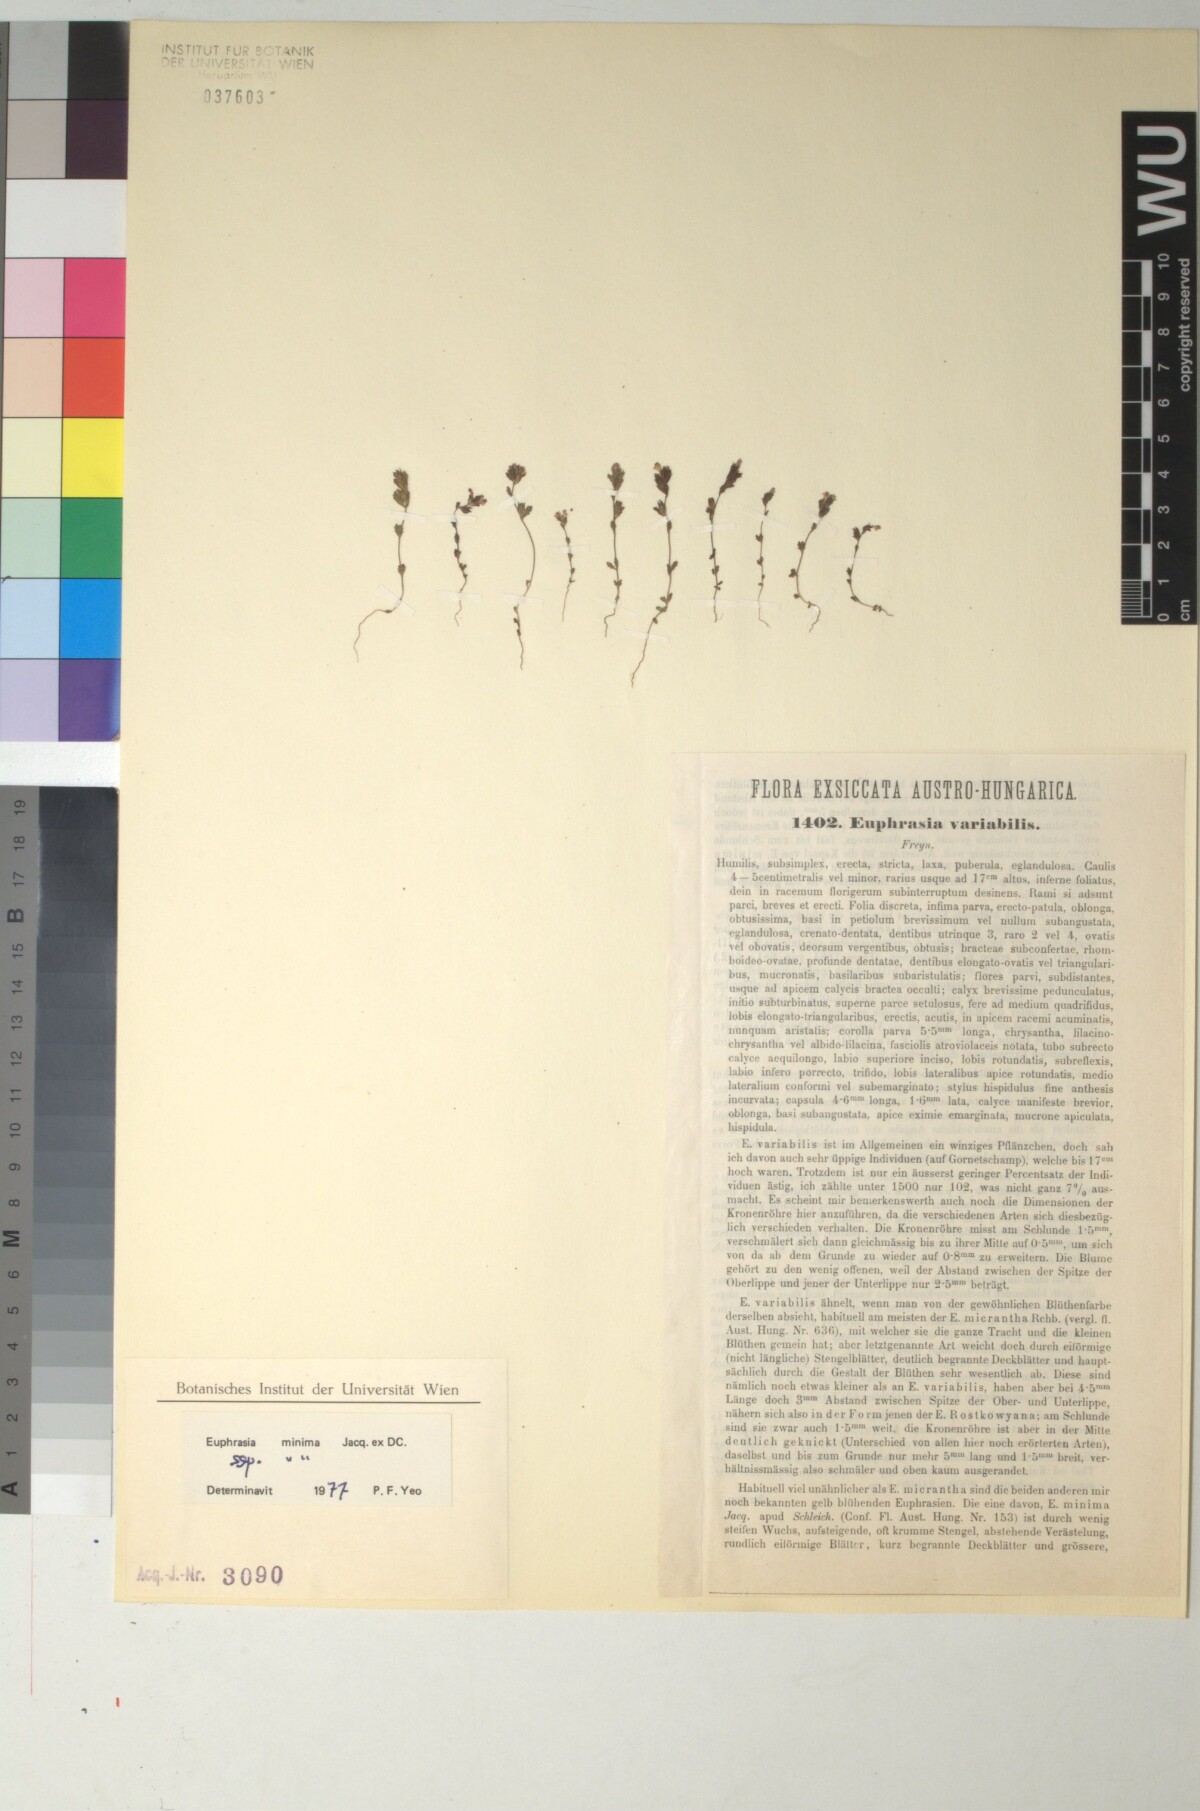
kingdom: Plantae
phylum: Tracheophyta
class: Magnoliopsida
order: Lamiales
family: Orobanchaceae
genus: Euphrasia
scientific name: Euphrasia variabilis
